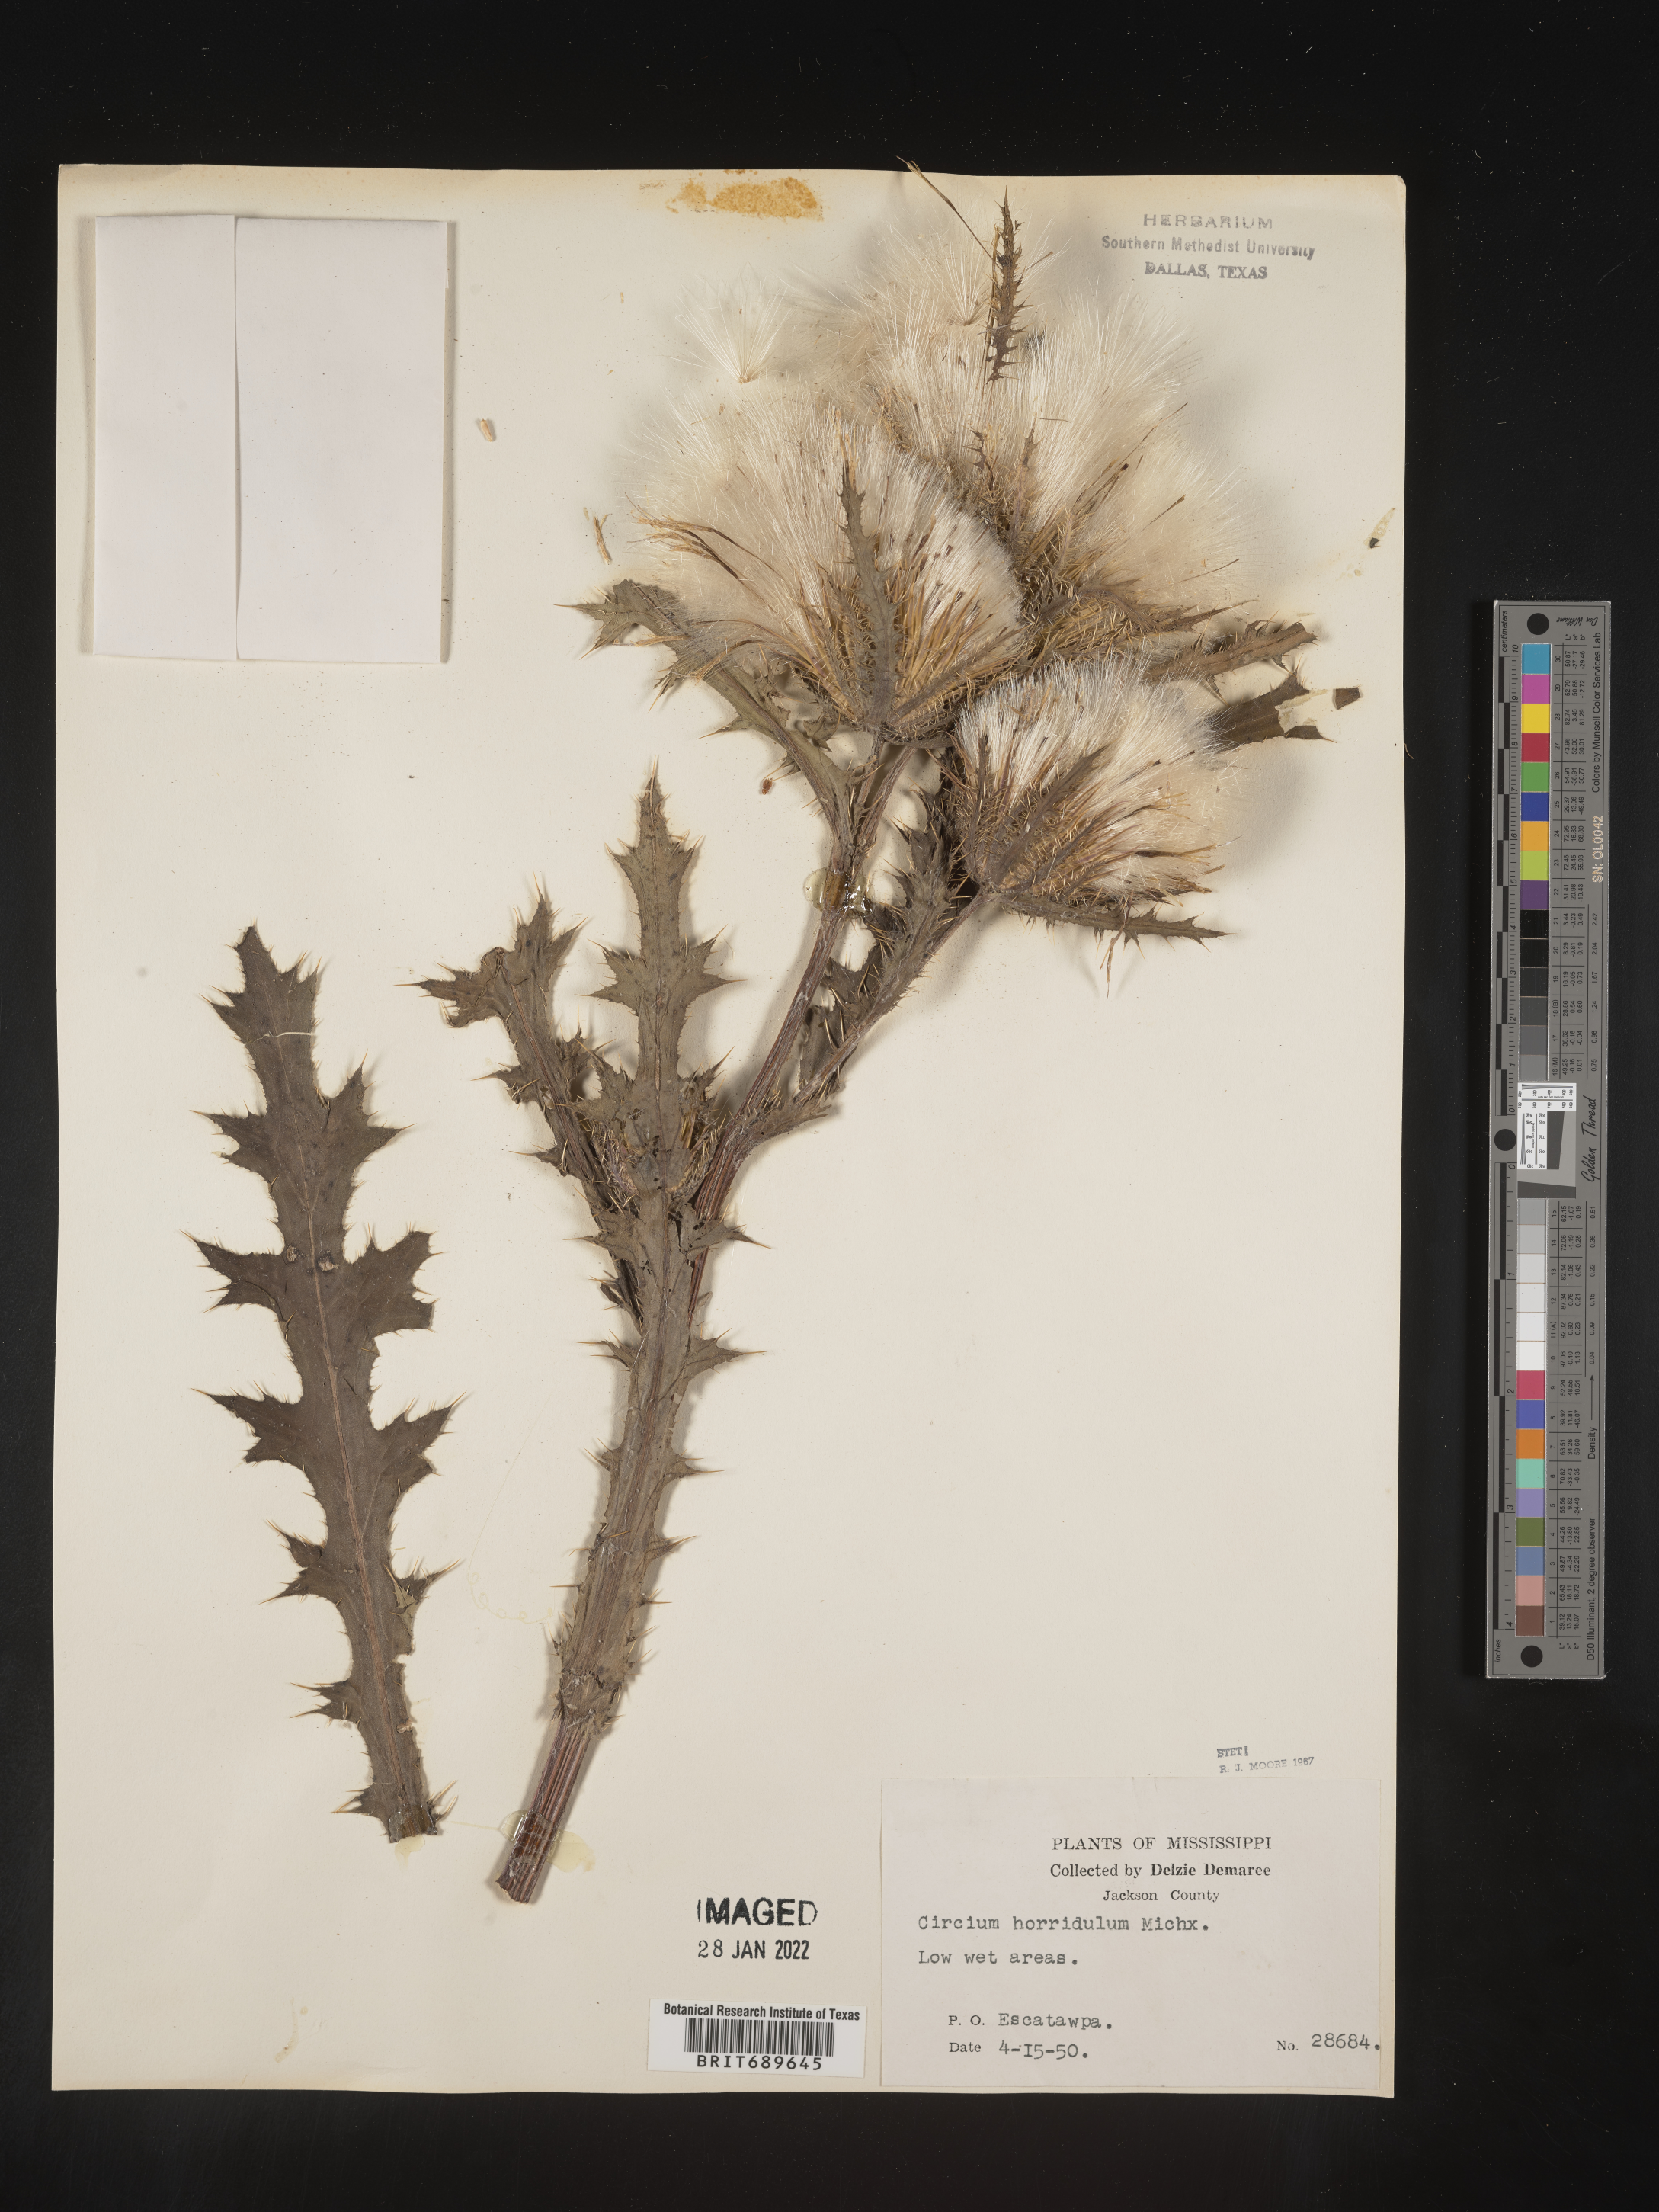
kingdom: Plantae
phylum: Tracheophyta
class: Magnoliopsida
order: Asterales
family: Asteraceae
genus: Cirsium
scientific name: Cirsium horridulum
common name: Bristly thistle
